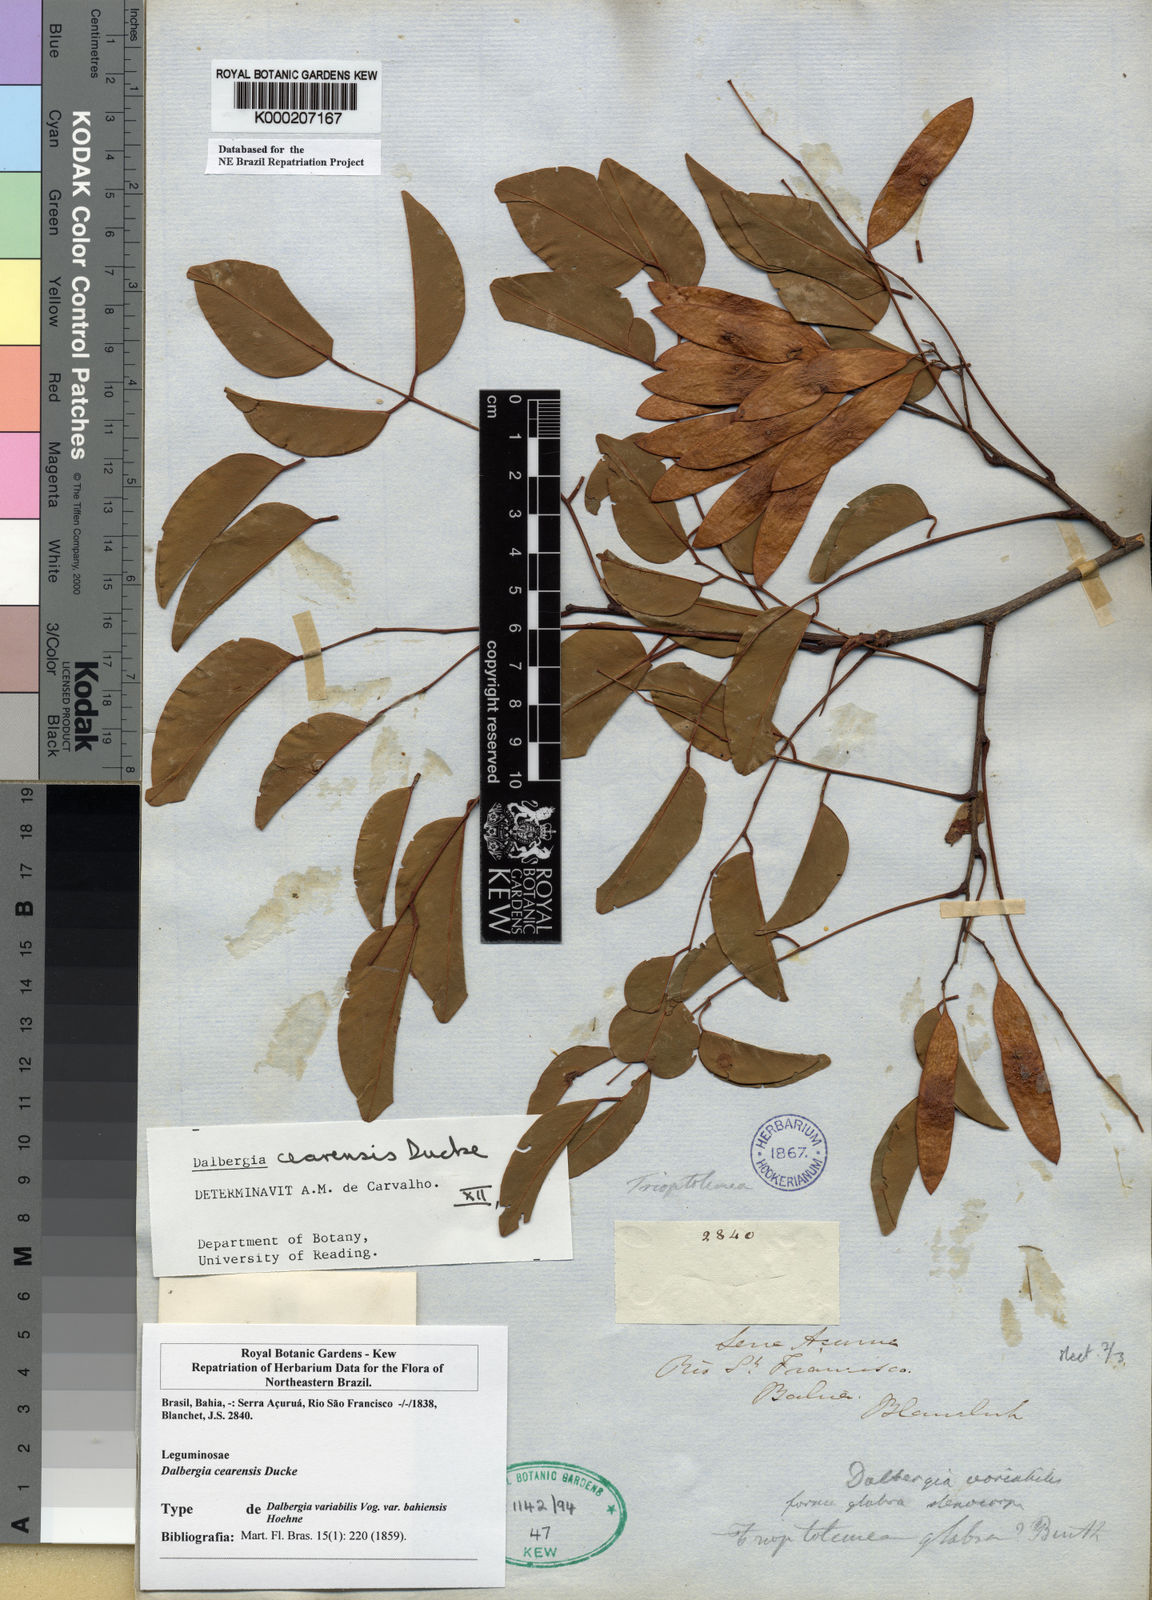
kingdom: Plantae
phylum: Tracheophyta
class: Magnoliopsida
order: Fabales
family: Fabaceae
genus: Dalbergia
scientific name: Dalbergia cearensis
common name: Brazilian-king-wood
